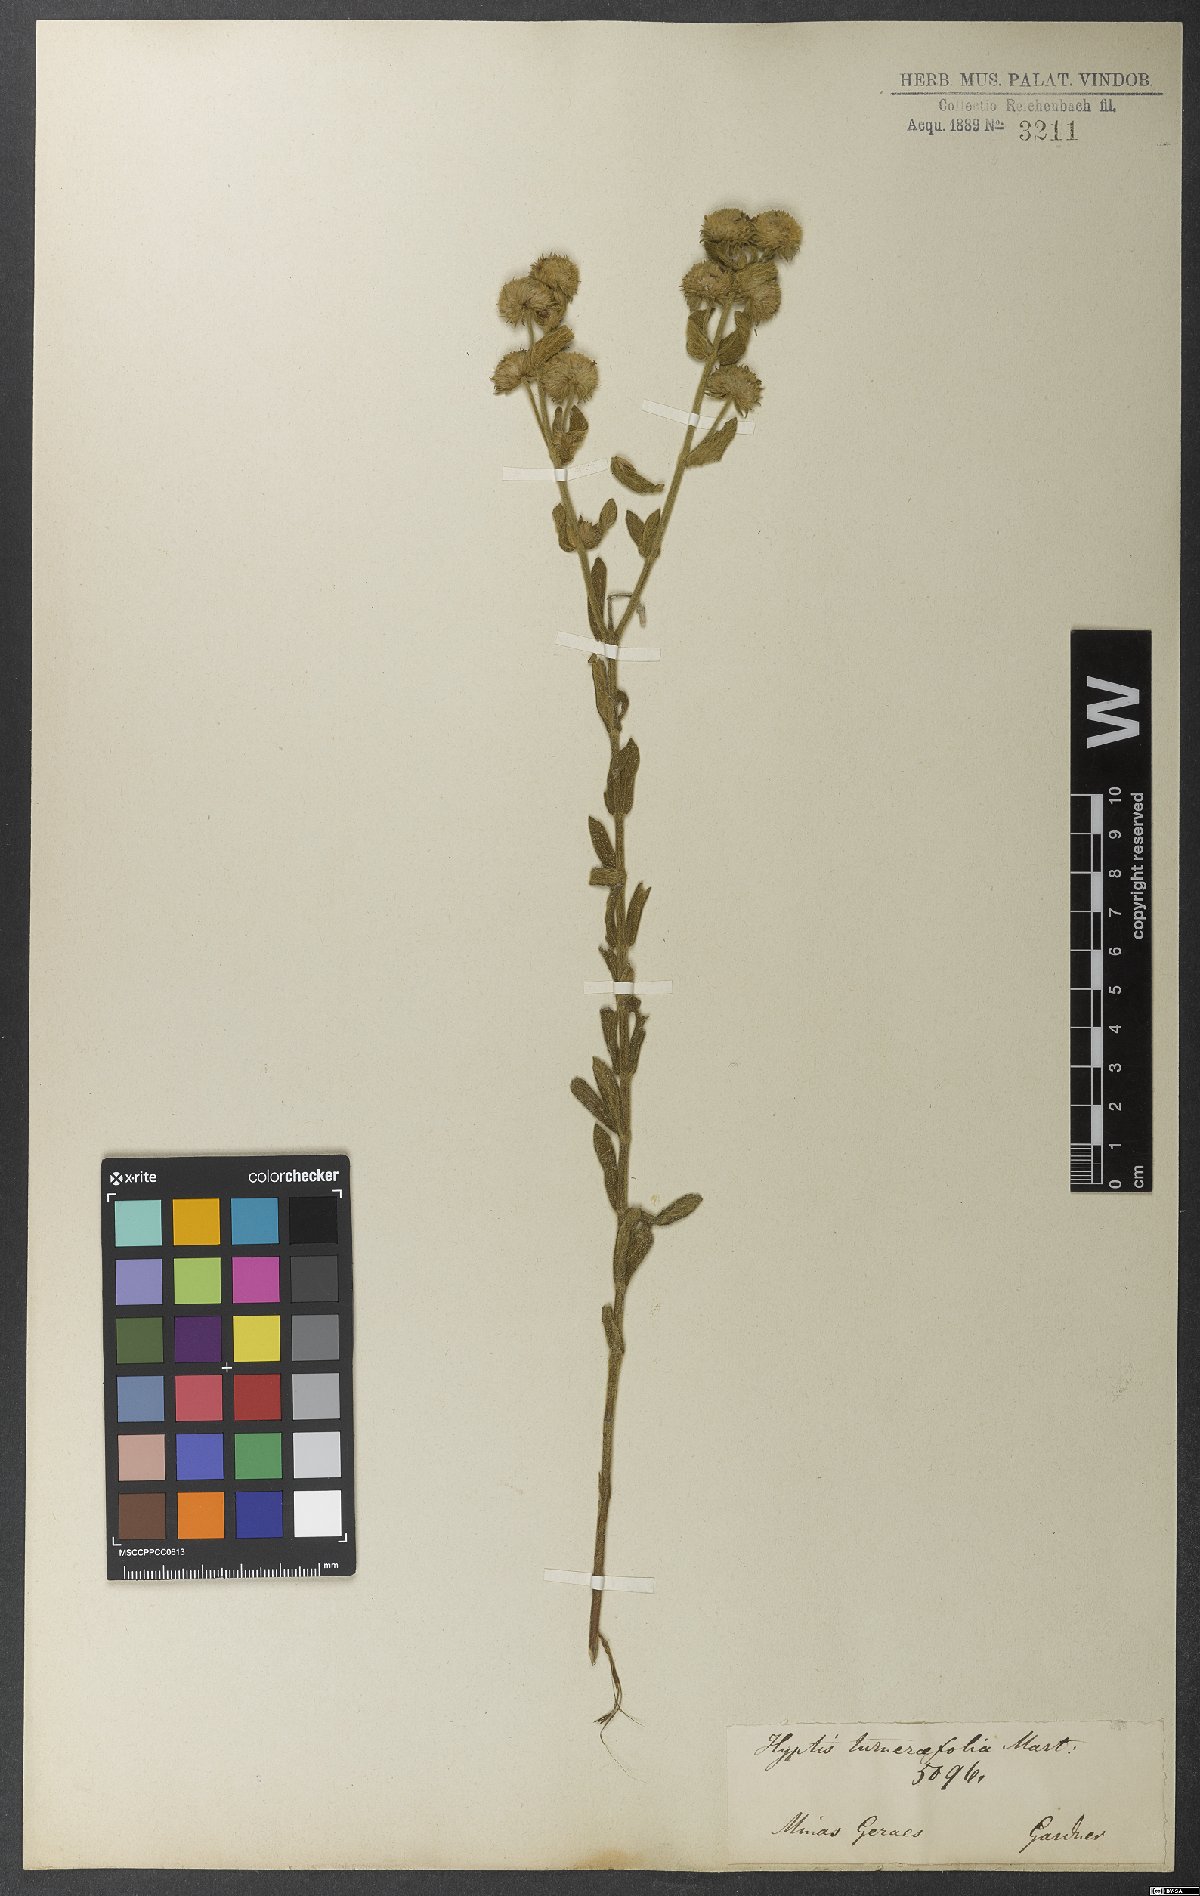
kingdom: Plantae
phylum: Tracheophyta
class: Magnoliopsida
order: Lamiales
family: Lamiaceae
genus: Hyptis
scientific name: Hyptis turnerifolia
